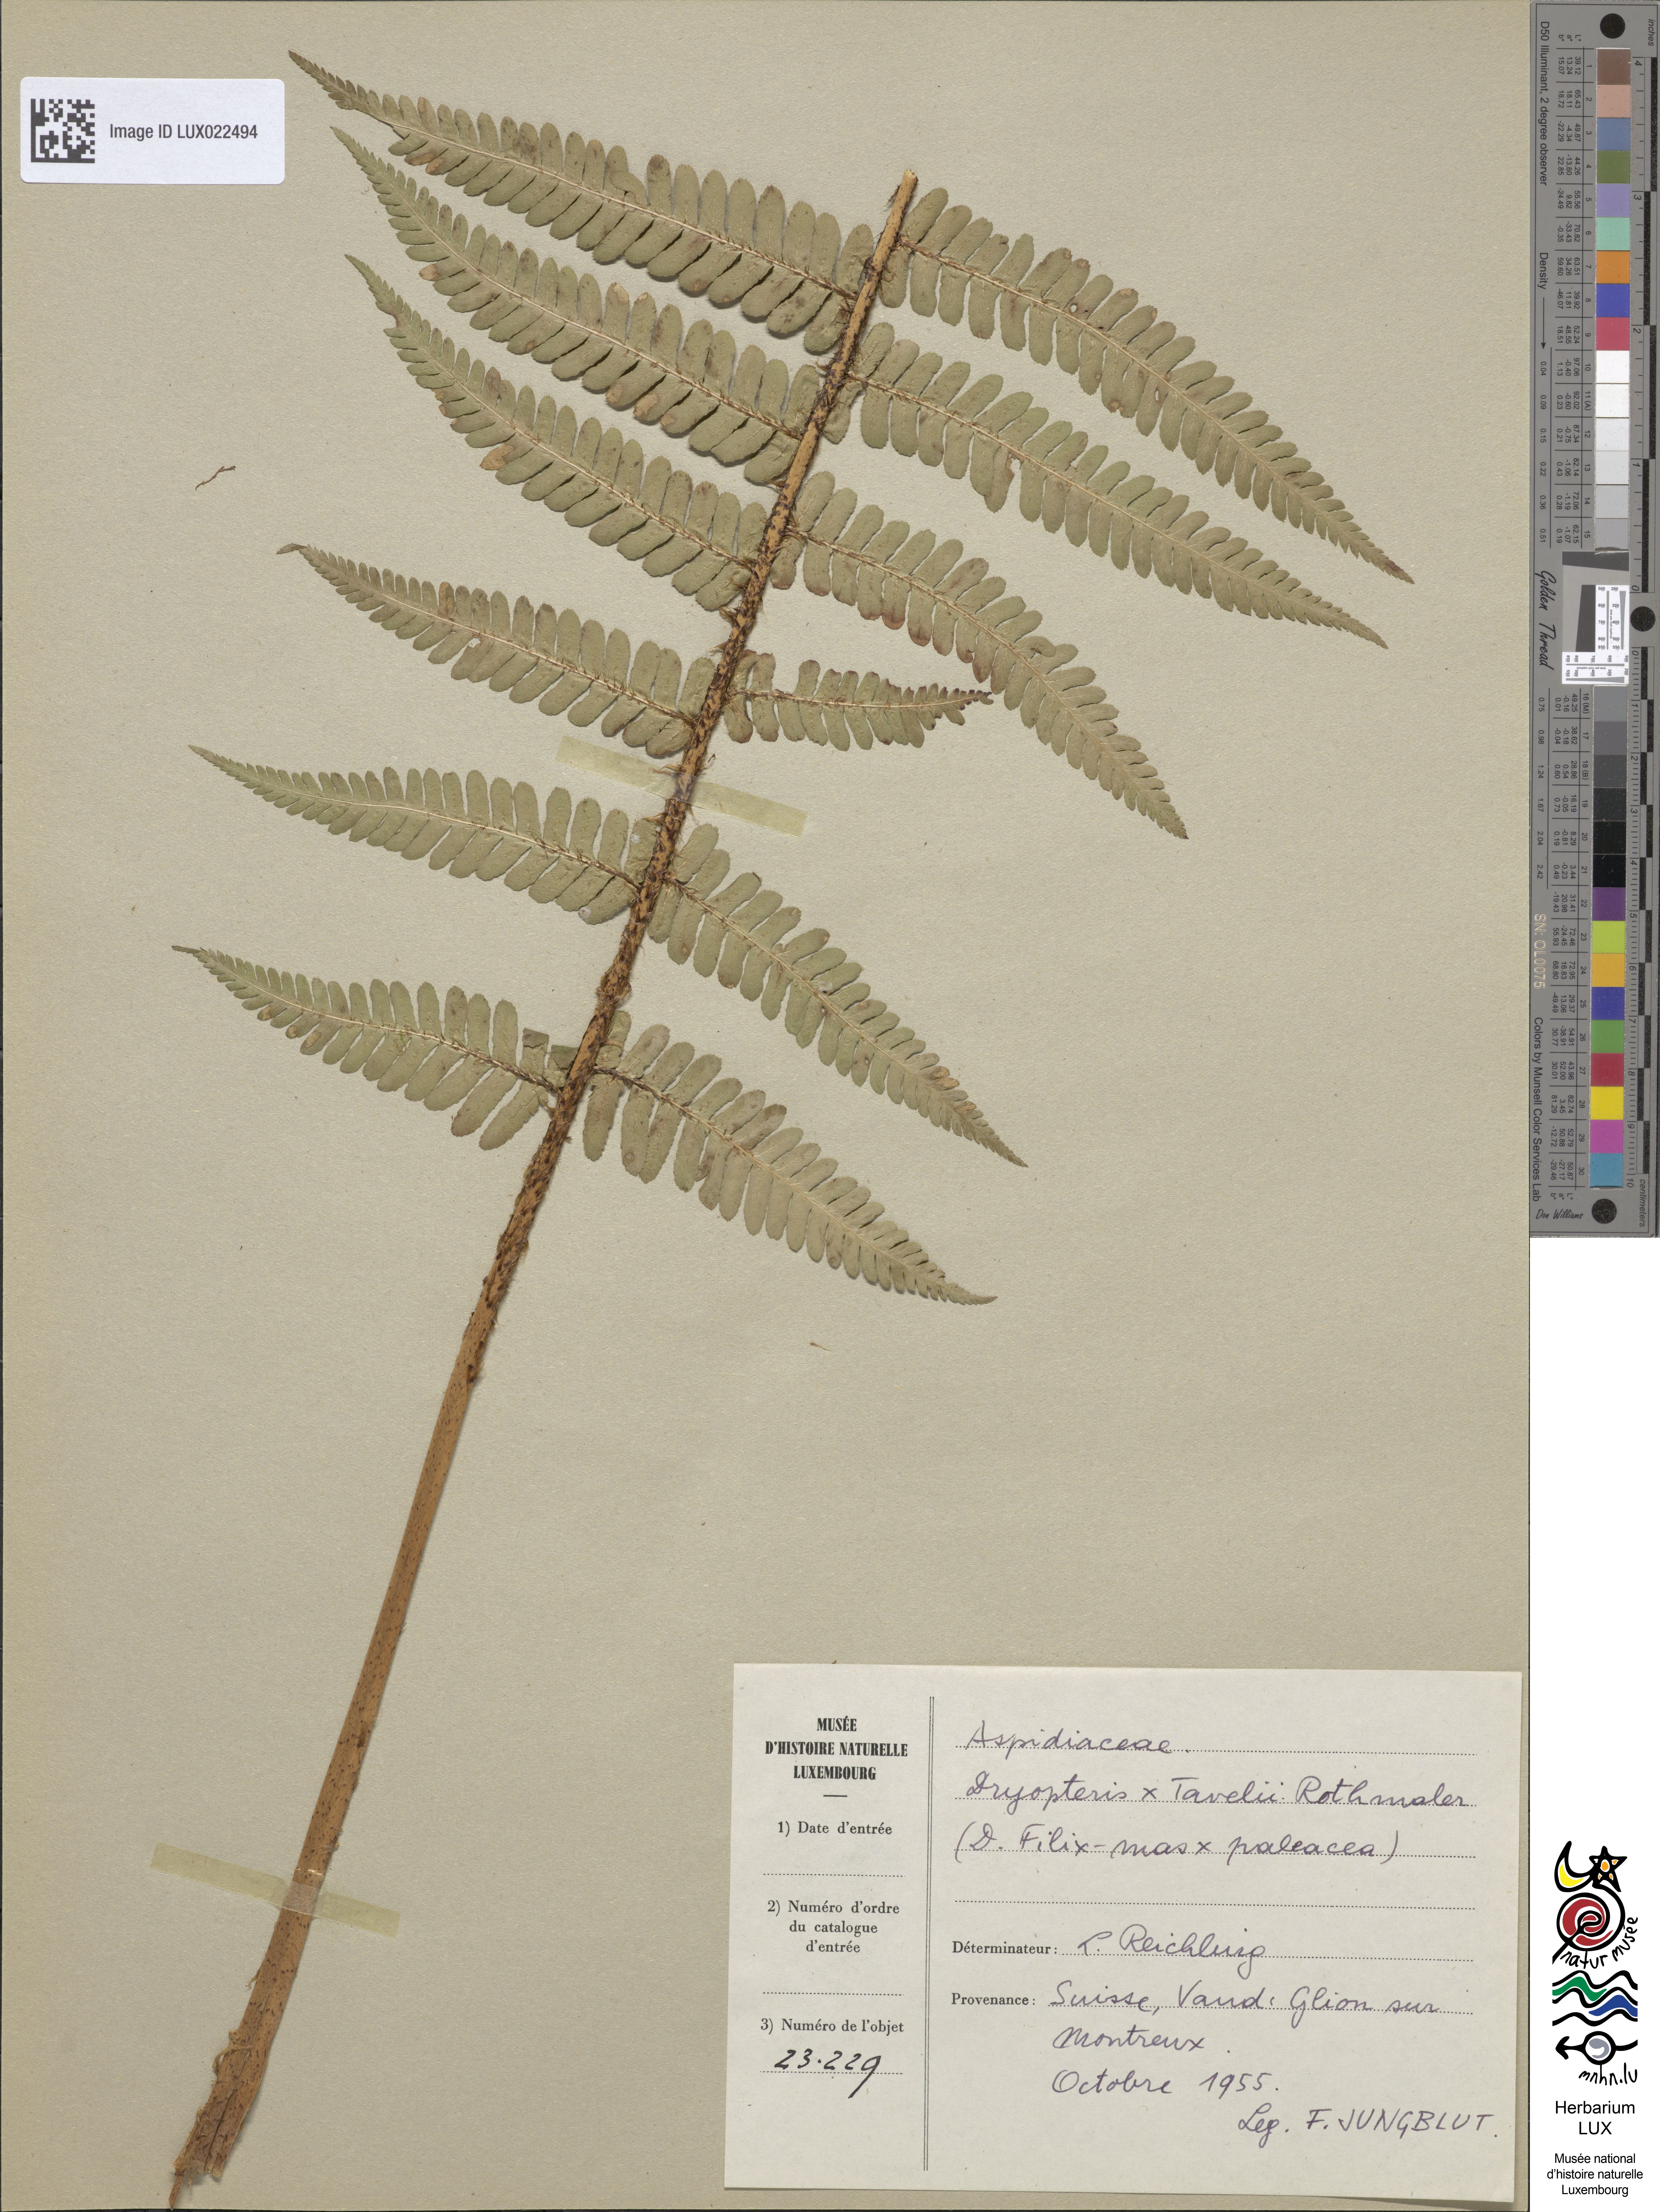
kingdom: Plantae
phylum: Tracheophyta
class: Polypodiopsida
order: Polypodiales
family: Dryopteridaceae
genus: Dryopteris
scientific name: Dryopteris borreri
